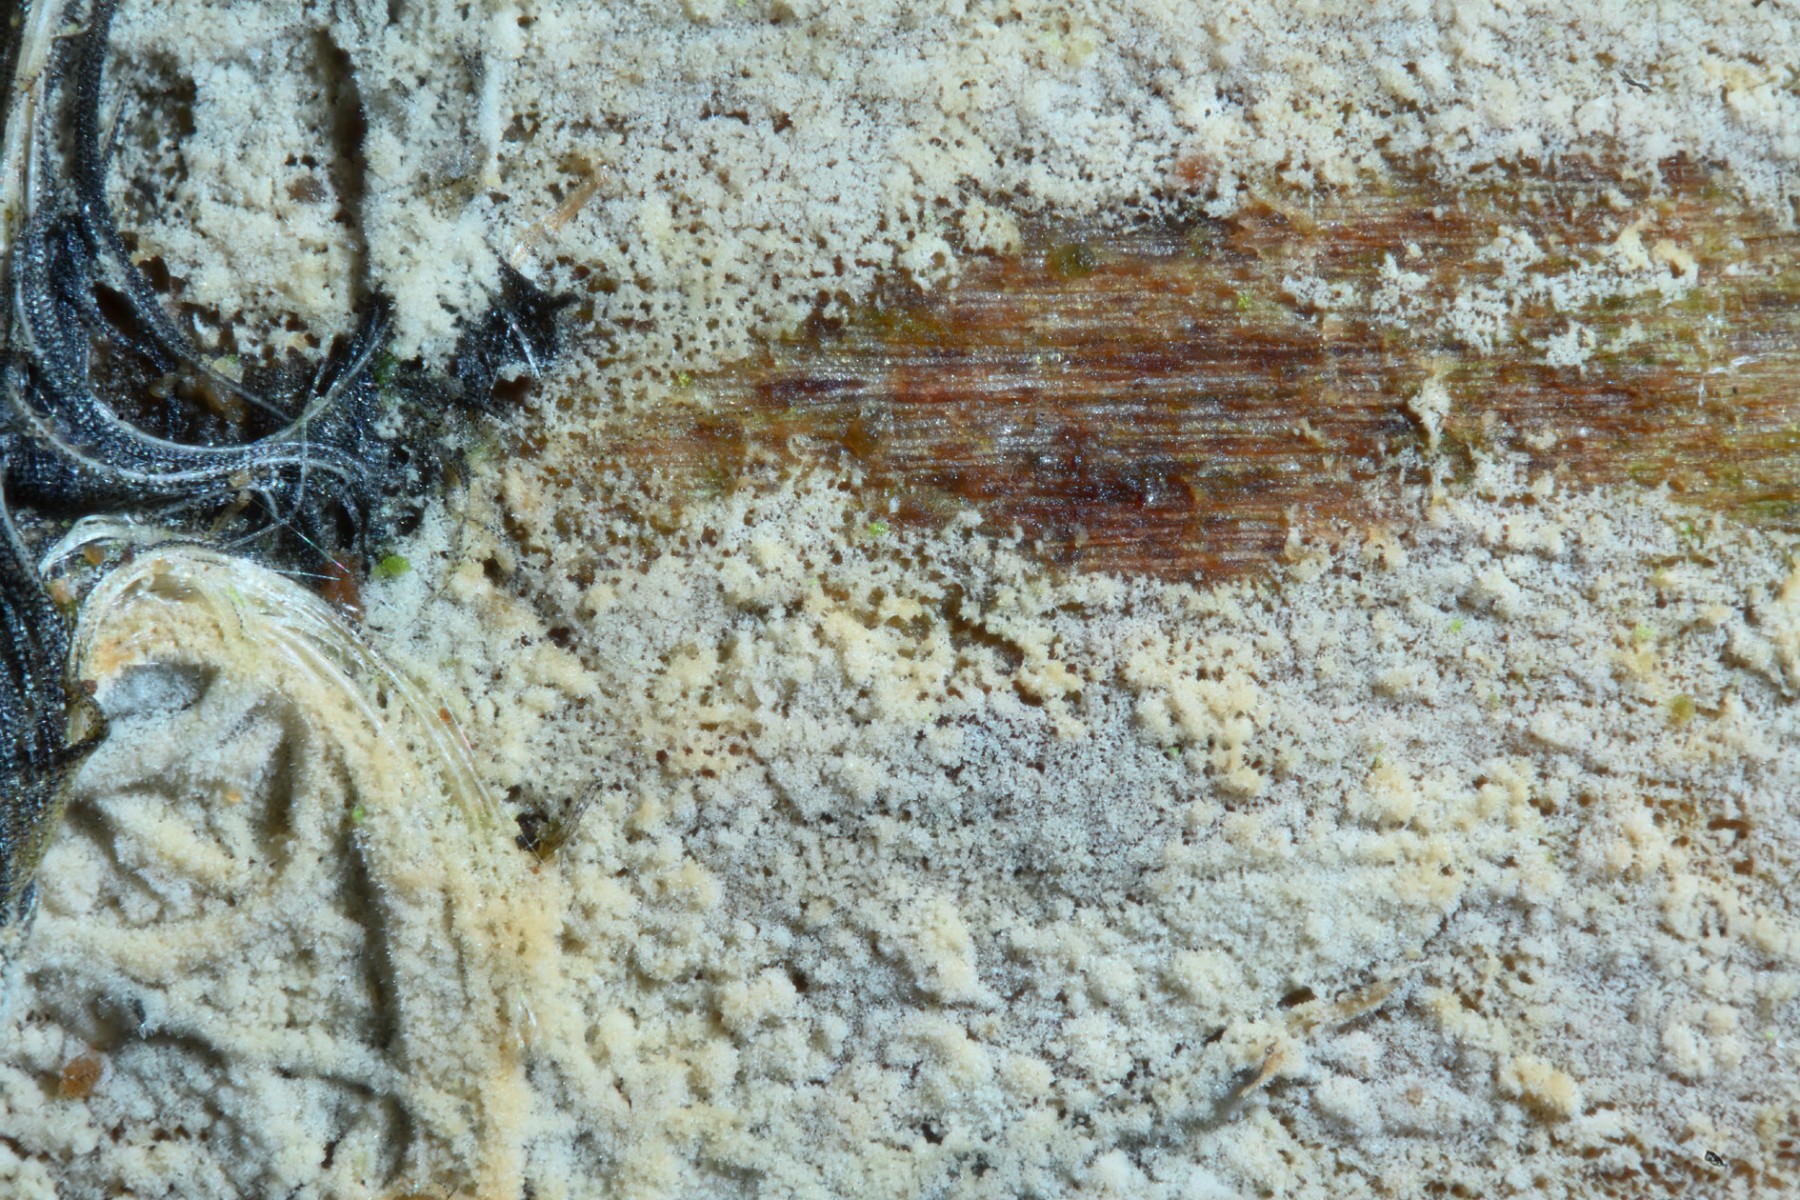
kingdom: Fungi
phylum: Basidiomycota
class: Agaricomycetes
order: Hymenochaetales
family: Hyphodontiaceae
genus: Hyphodontia
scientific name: Hyphodontia pallidula
